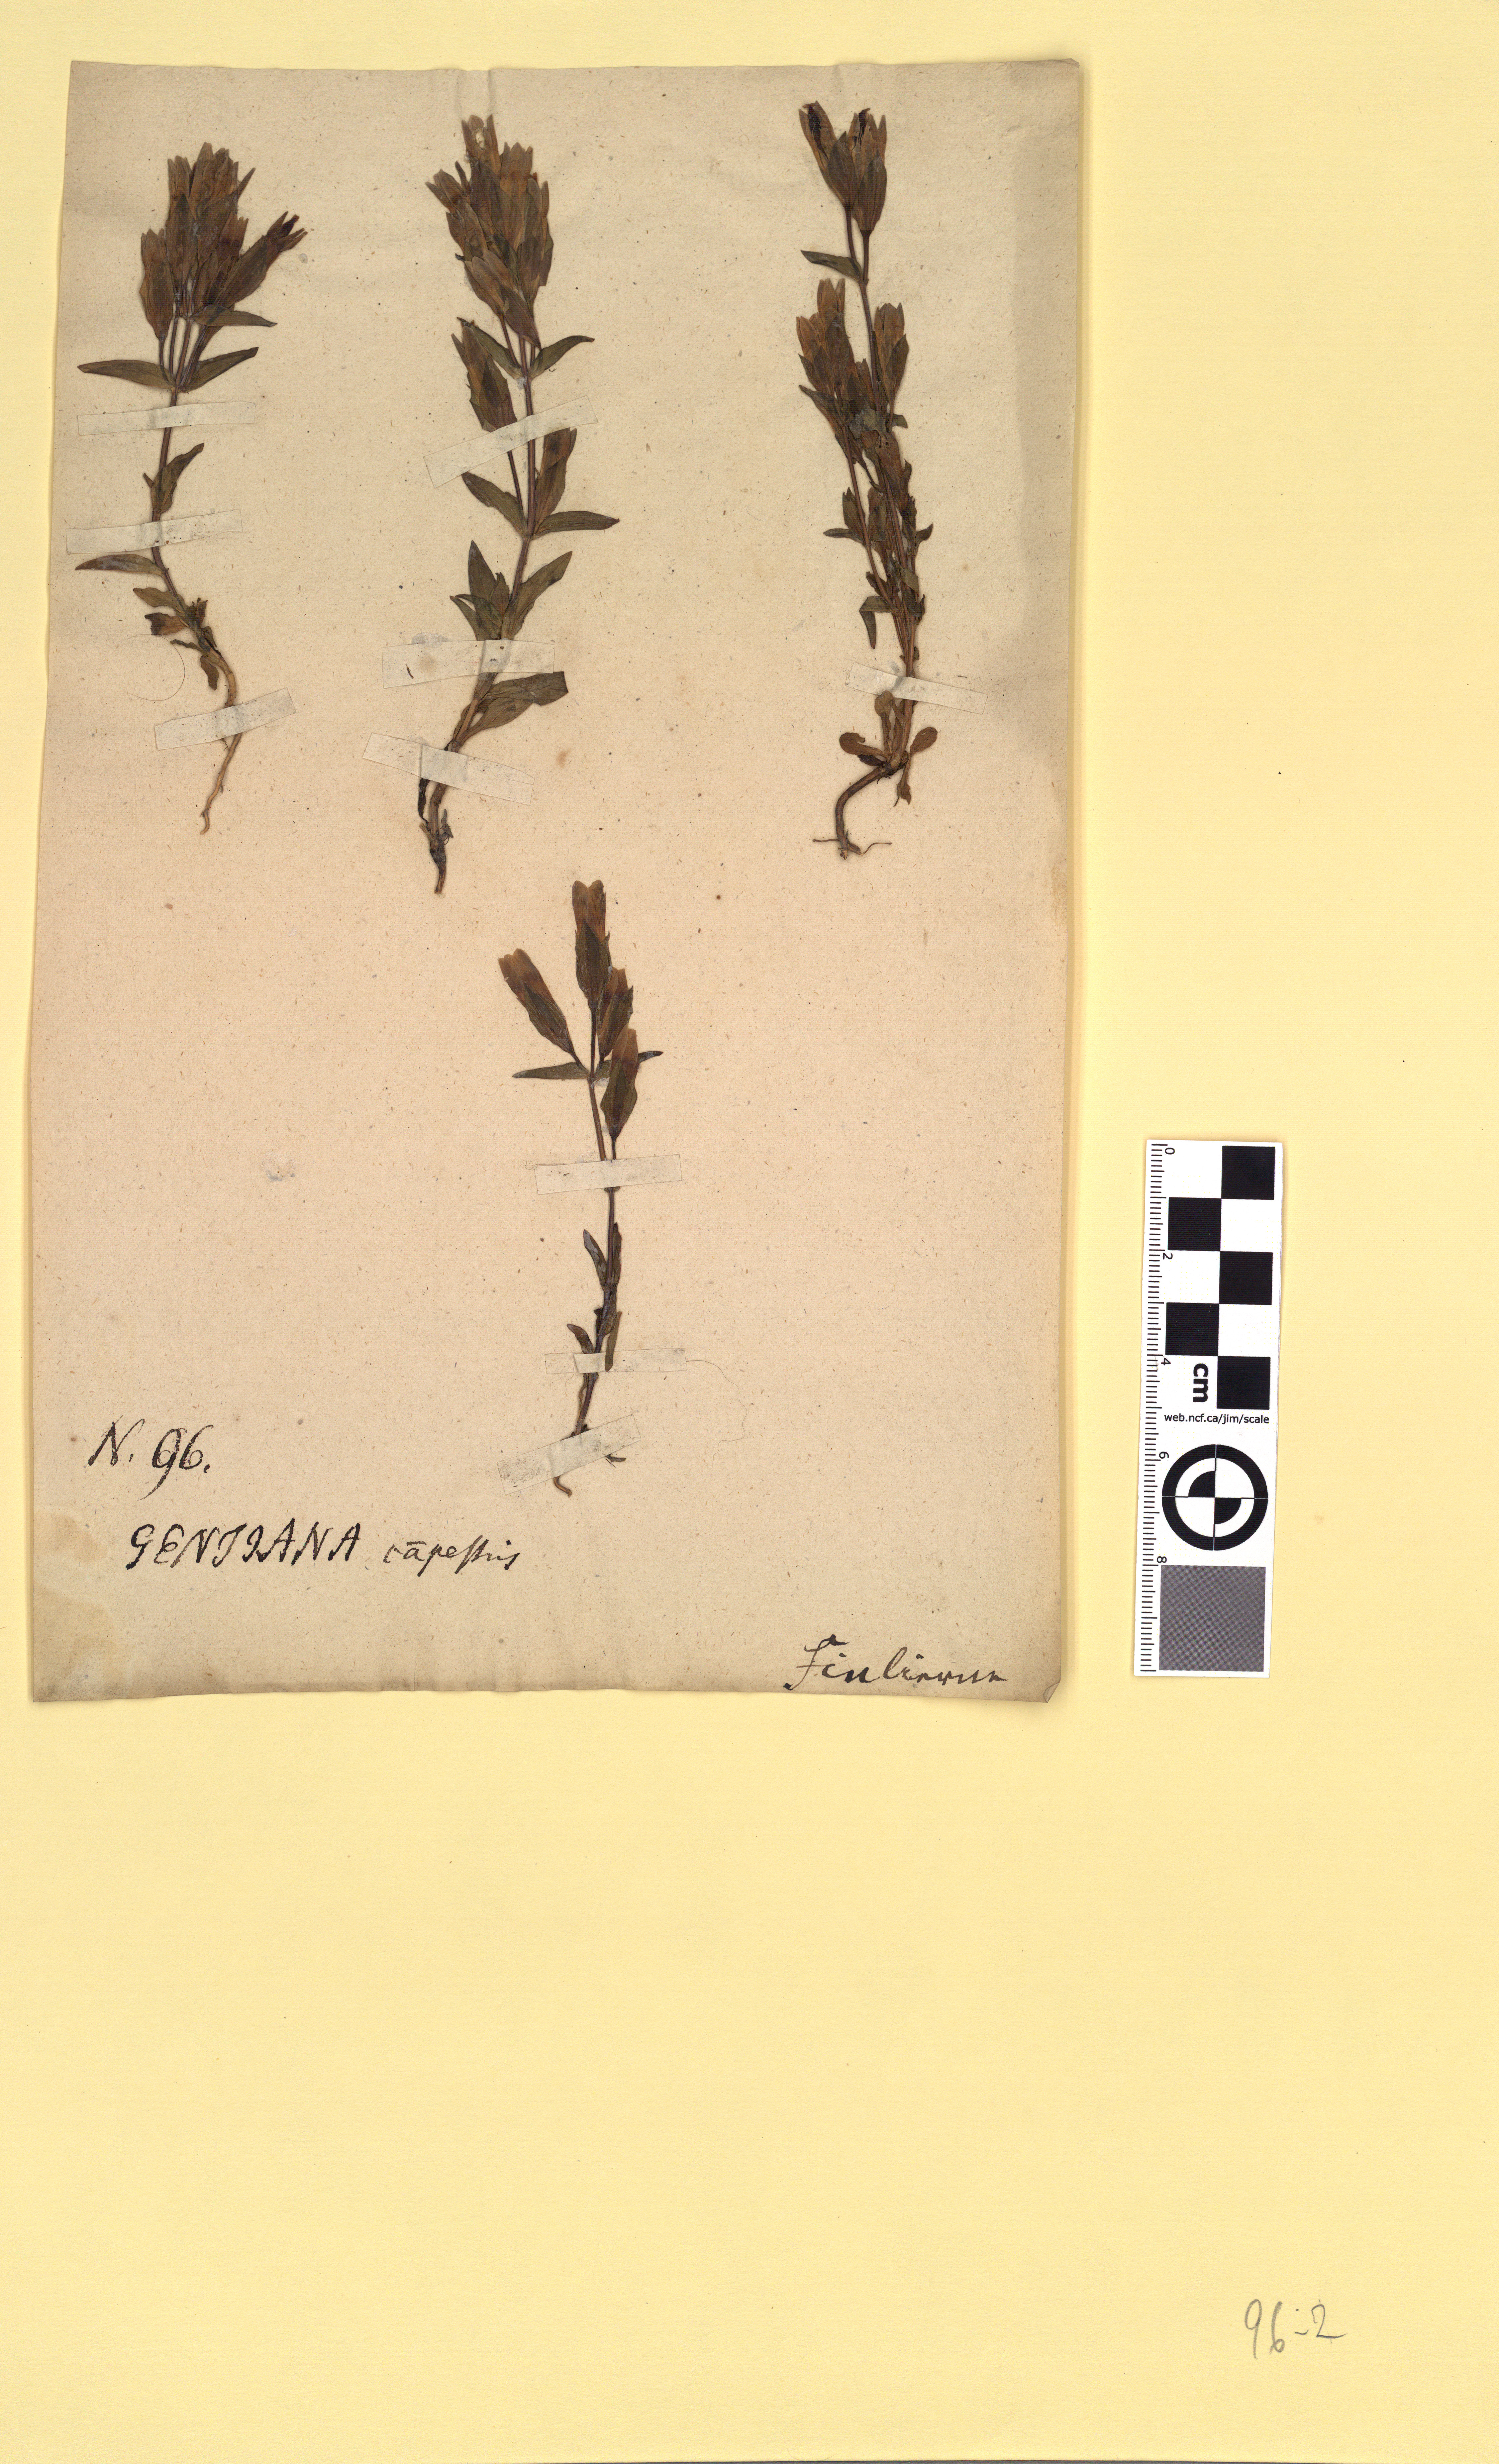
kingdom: Plantae
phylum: Tracheophyta
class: Magnoliopsida
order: Gentianales
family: Gentianaceae
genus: Gentianella
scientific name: Gentianella campestris
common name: Field gentian
